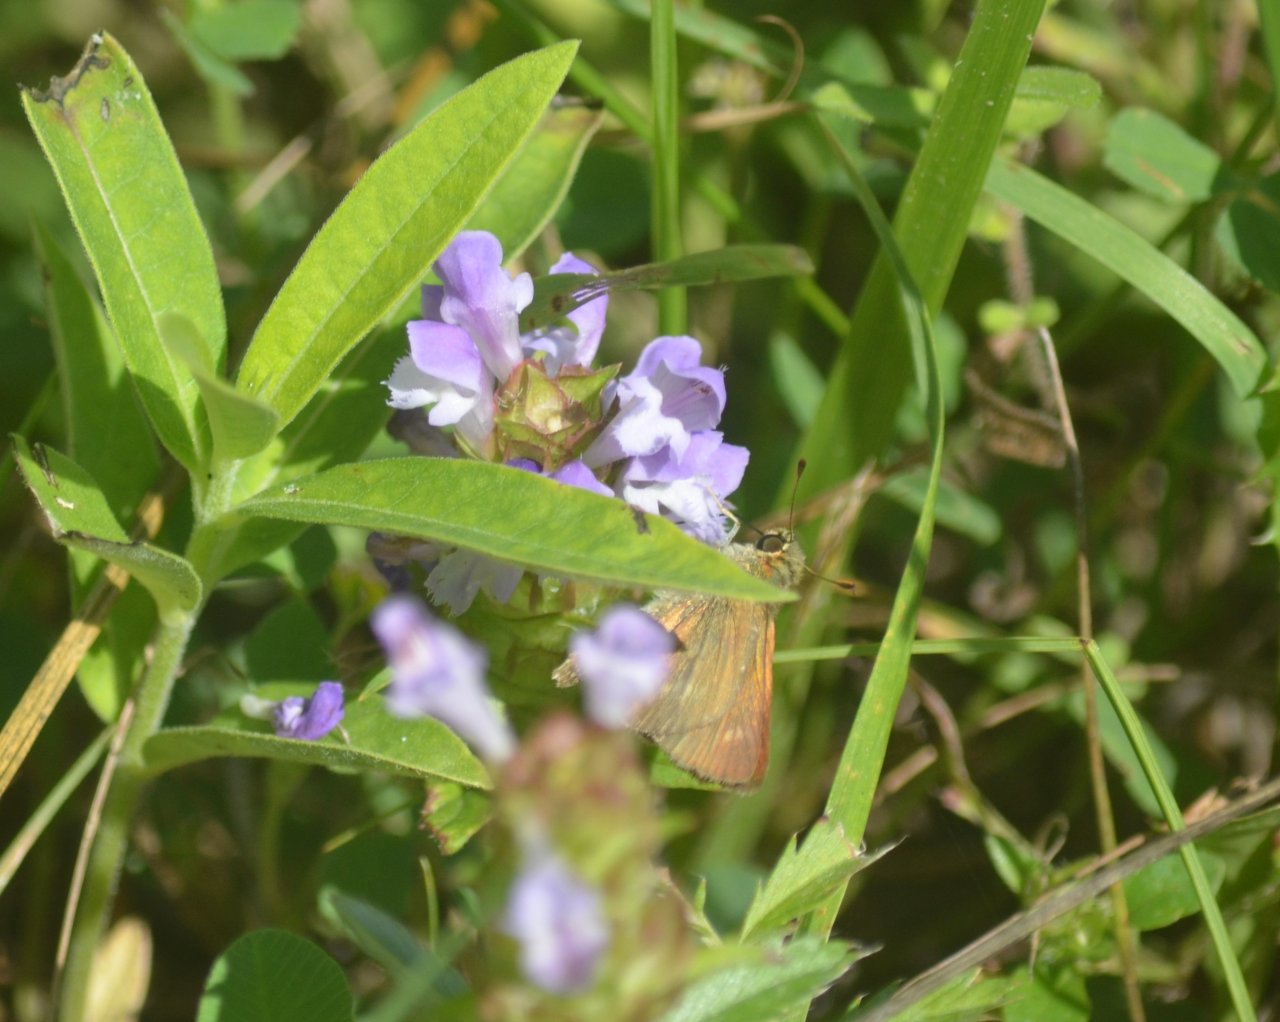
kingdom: Animalia
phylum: Arthropoda
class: Insecta
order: Lepidoptera
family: Hesperiidae
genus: Euphyes
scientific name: Euphyes vestris
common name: Dun Skipper
